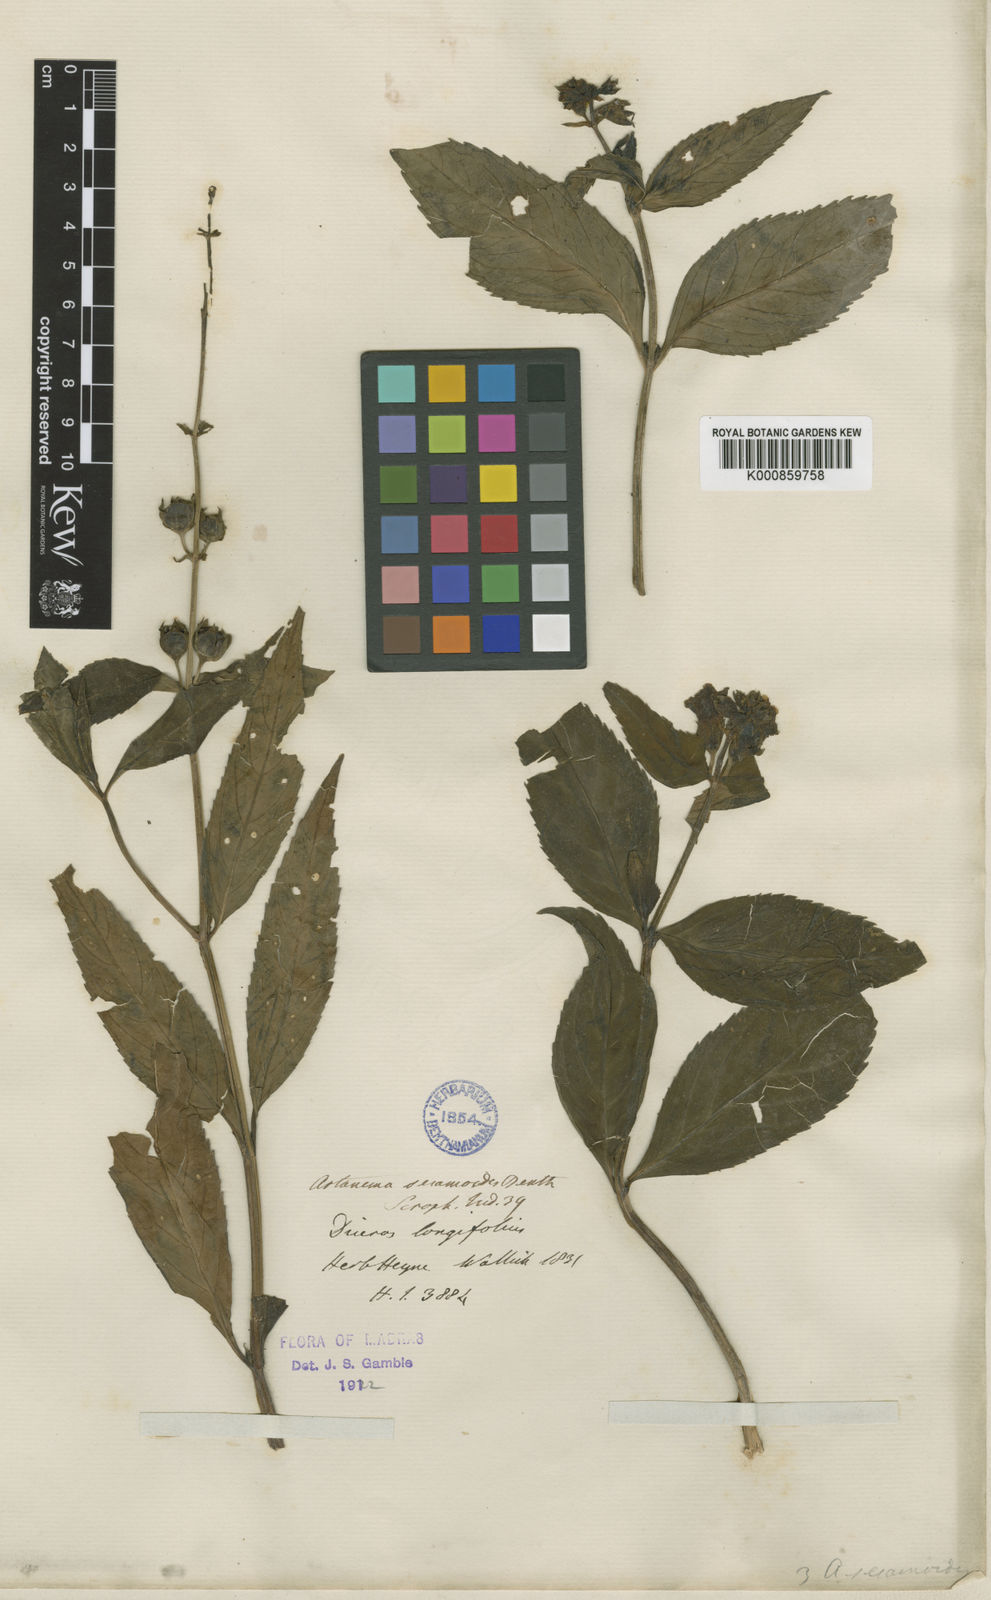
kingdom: Plantae
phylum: Tracheophyta
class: Magnoliopsida
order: Lamiales
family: Linderniaceae
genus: Artanema
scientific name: Artanema longifolium
